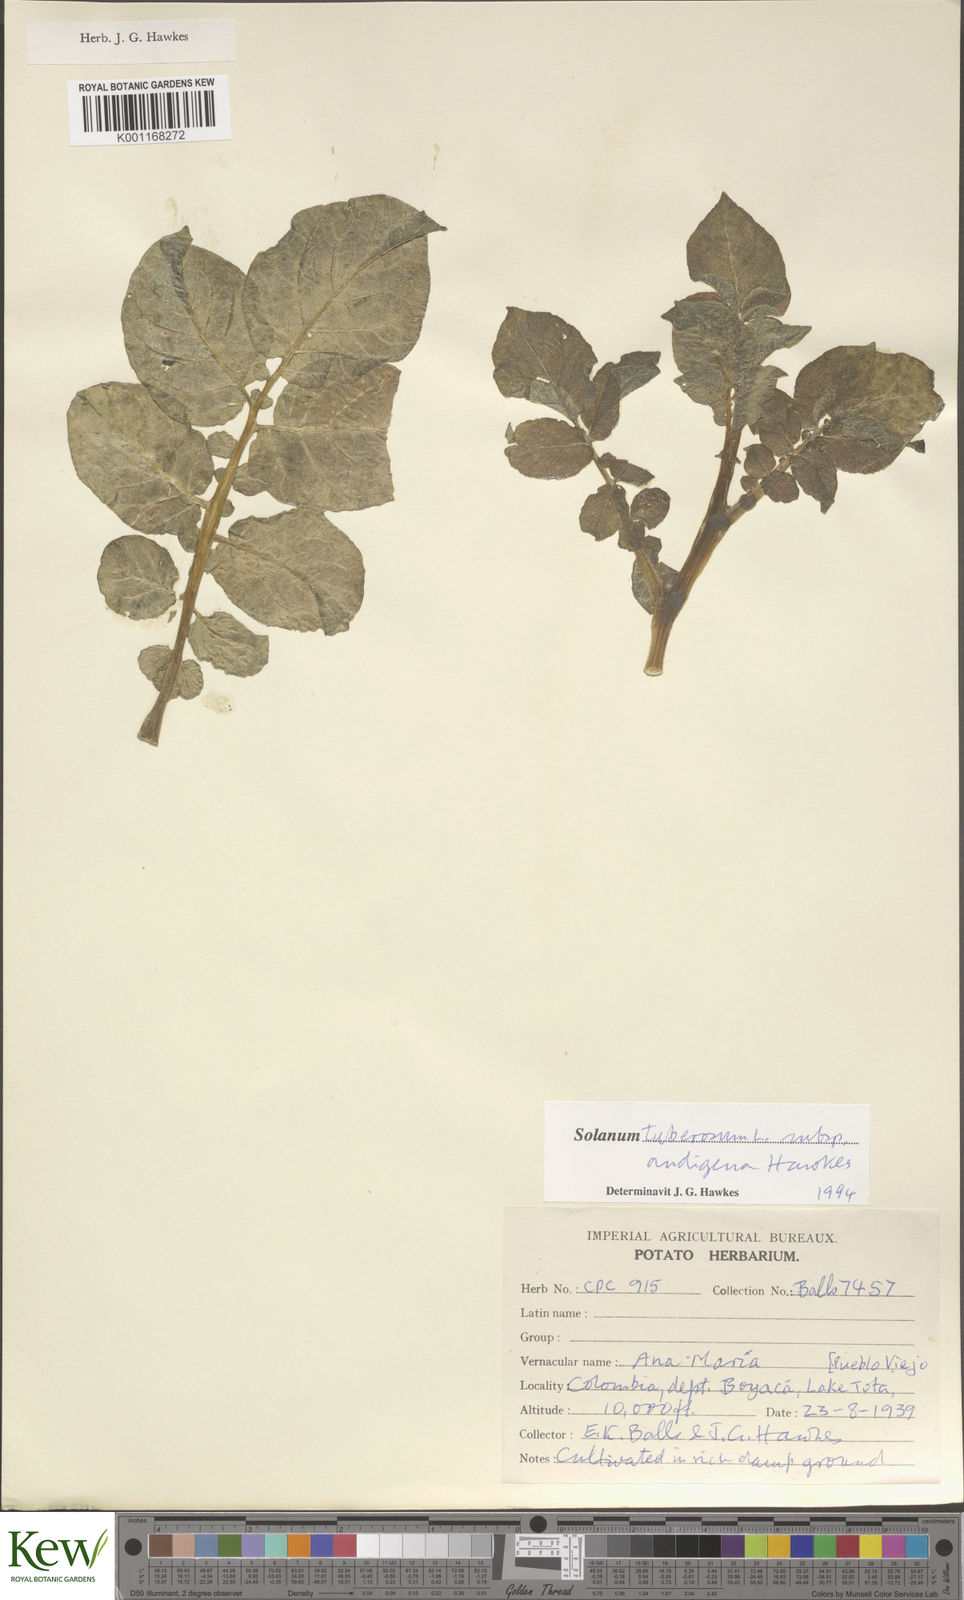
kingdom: Plantae
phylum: Tracheophyta
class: Magnoliopsida
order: Solanales
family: Solanaceae
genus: Solanum
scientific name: Solanum tuberosum
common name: Potato
